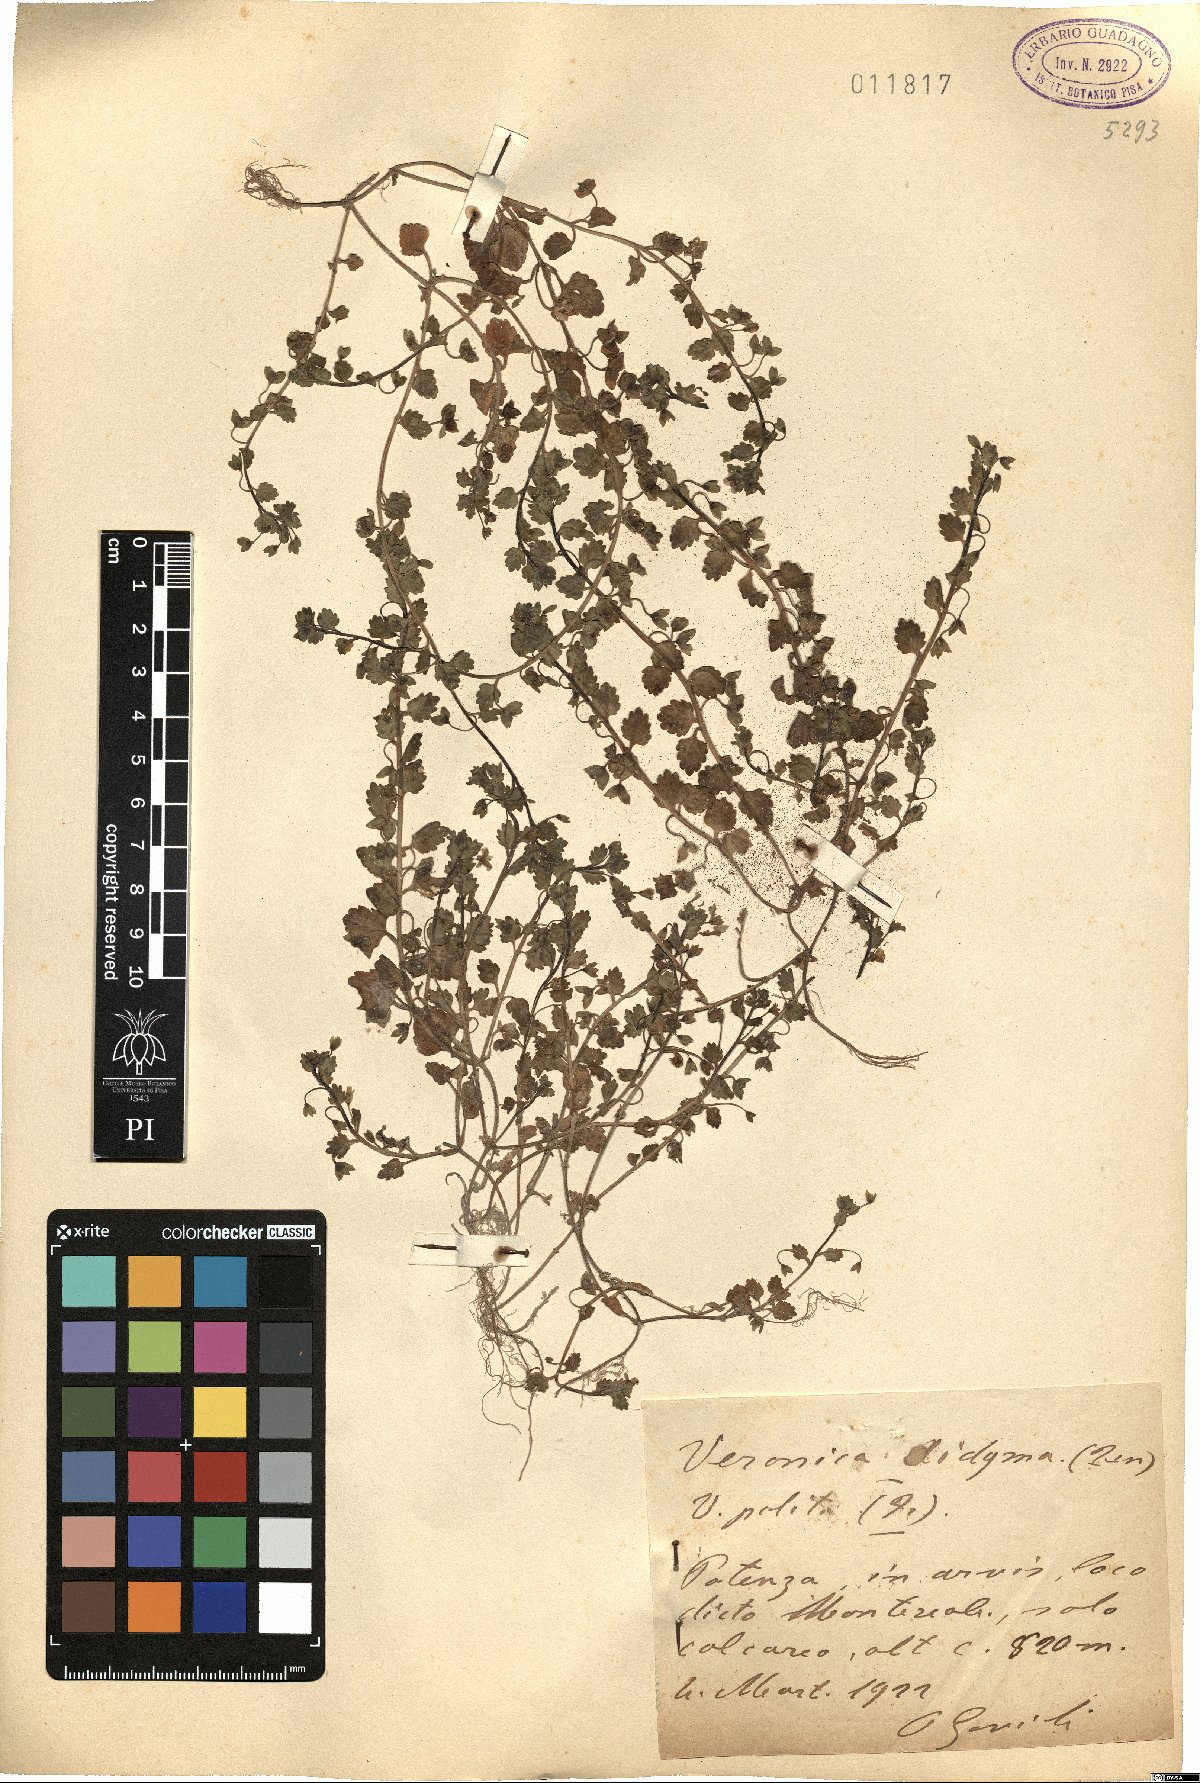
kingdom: Plantae
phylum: Tracheophyta
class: Magnoliopsida
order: Lamiales
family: Plantaginaceae
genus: Veronica
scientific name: Veronica polita
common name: Grey field-speedwell
